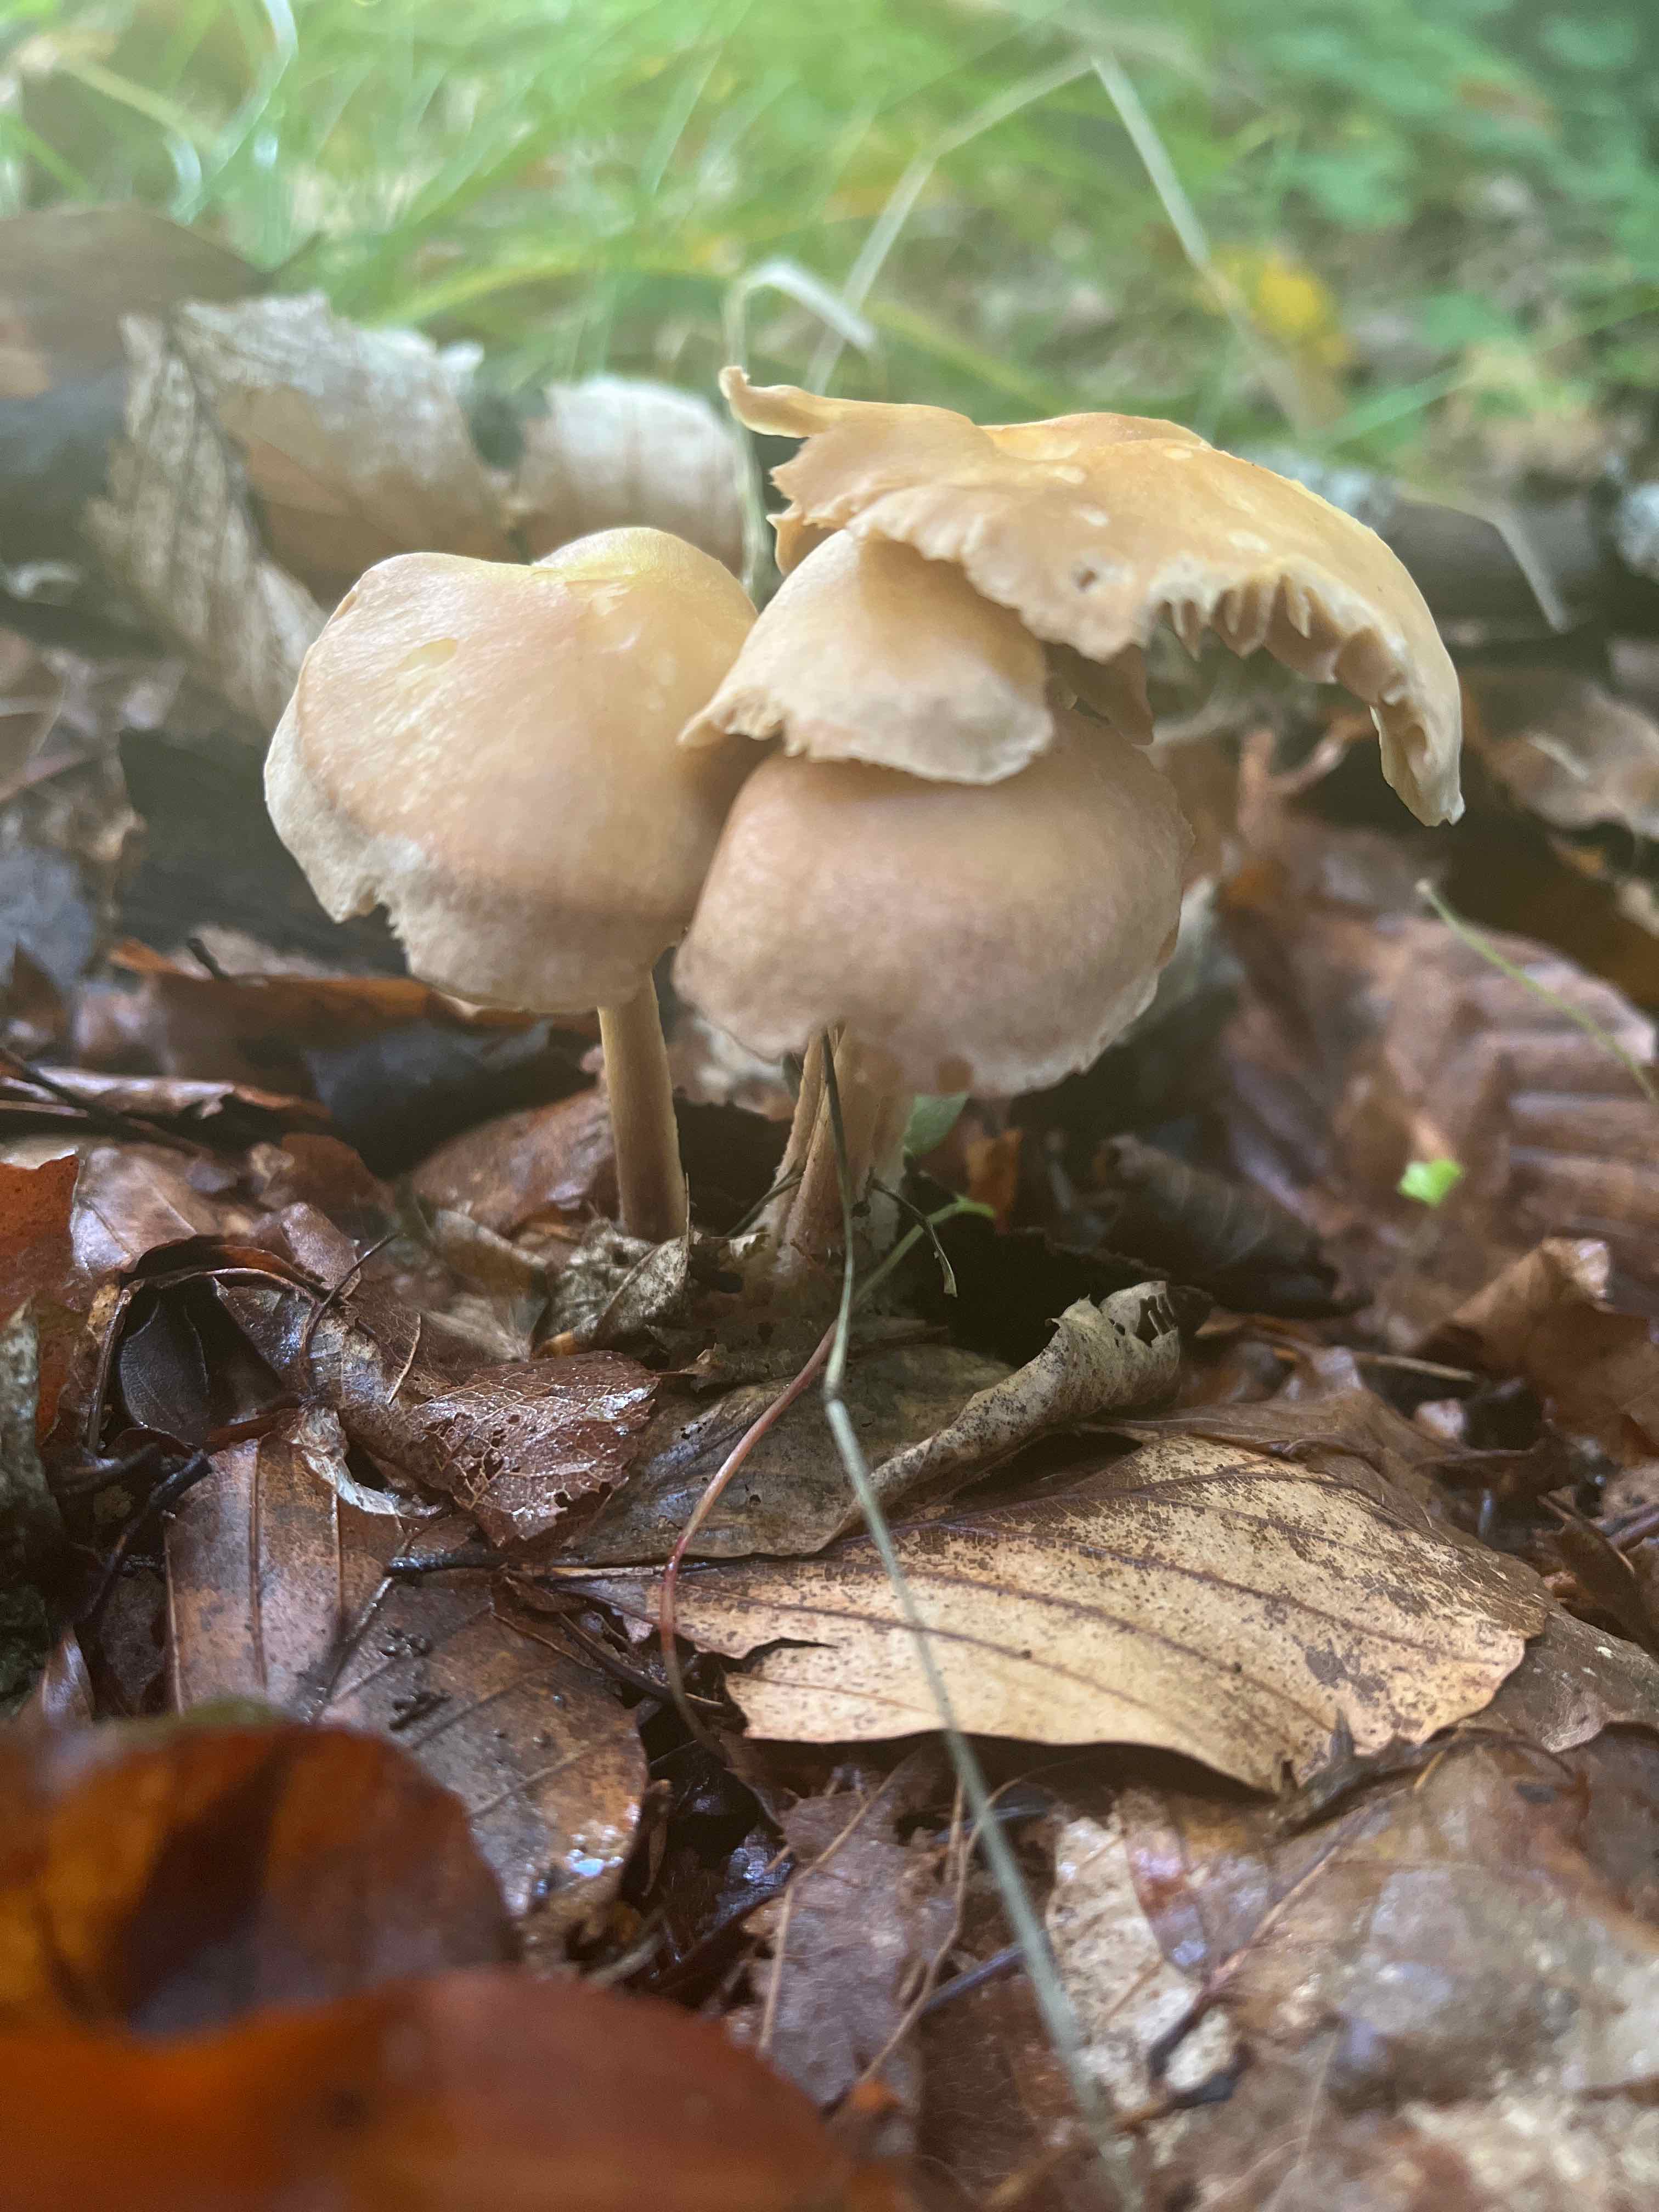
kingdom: Fungi
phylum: Basidiomycota
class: Agaricomycetes
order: Agaricales
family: Omphalotaceae
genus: Collybiopsis
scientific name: Collybiopsis peronata
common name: bestøvlet fladhat
